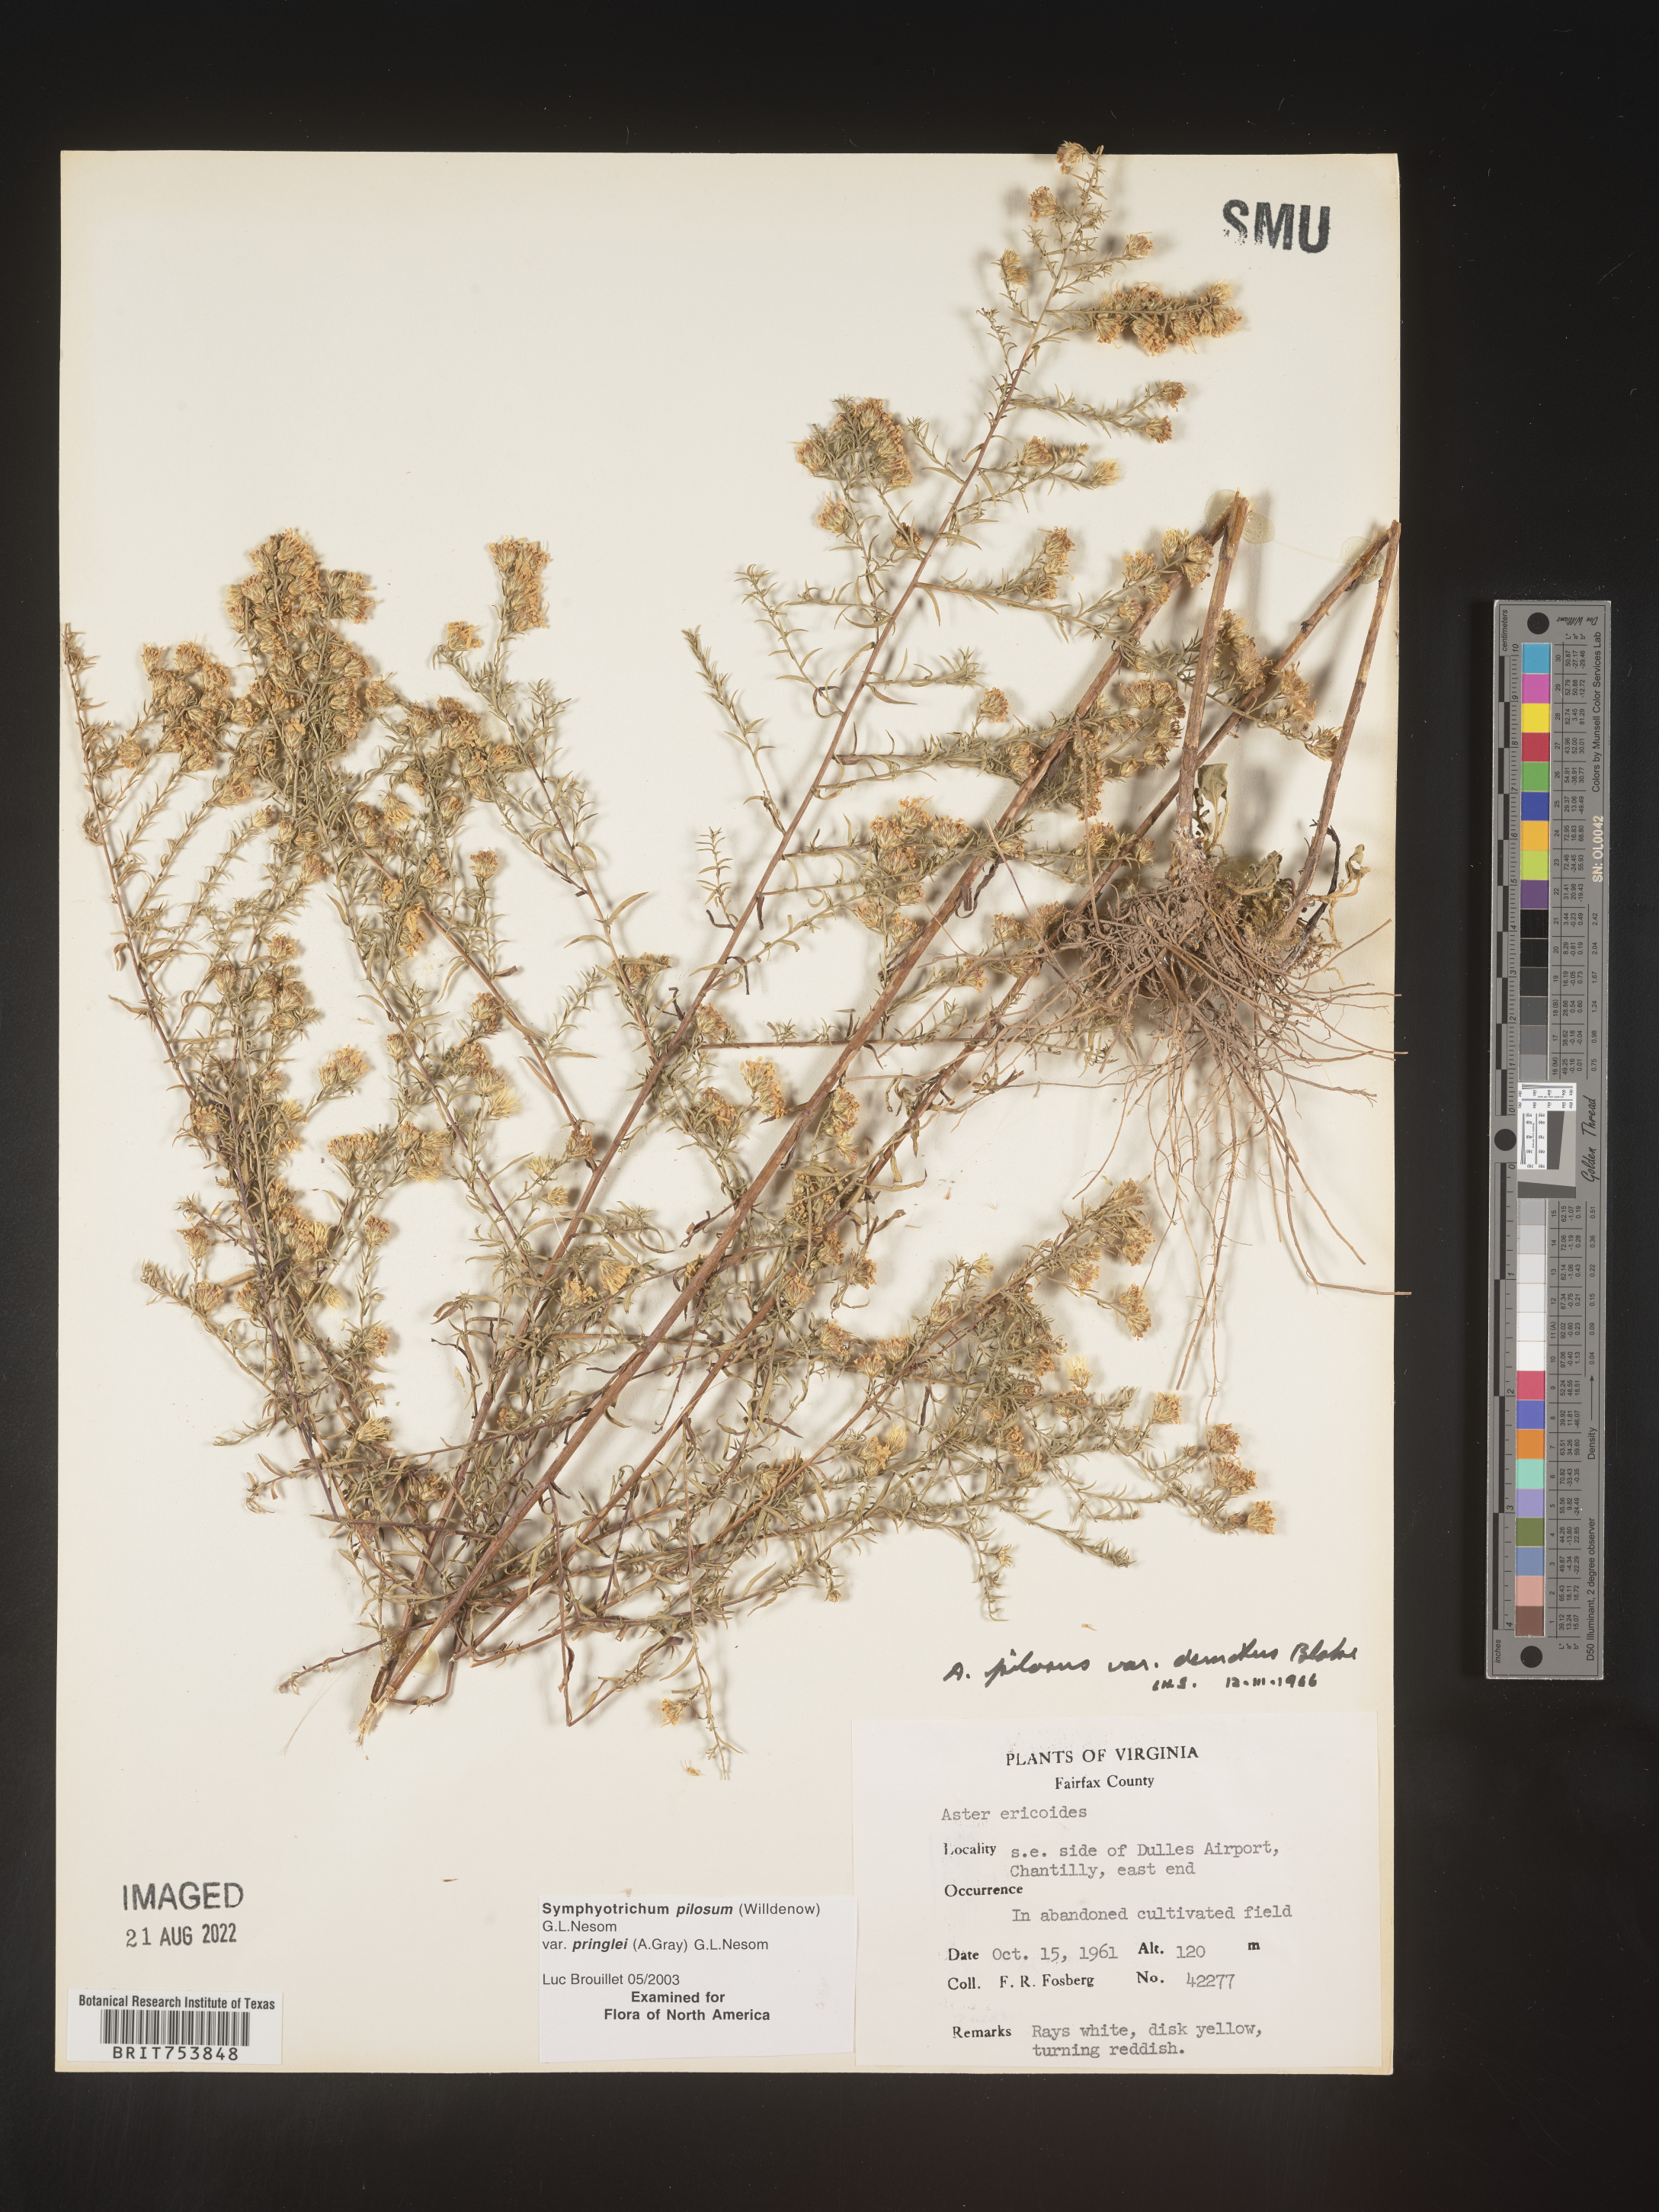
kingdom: Plantae
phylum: Tracheophyta
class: Magnoliopsida
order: Asterales
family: Asteraceae
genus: Symphyotrichum
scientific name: Symphyotrichum pilosum
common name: Awl aster
